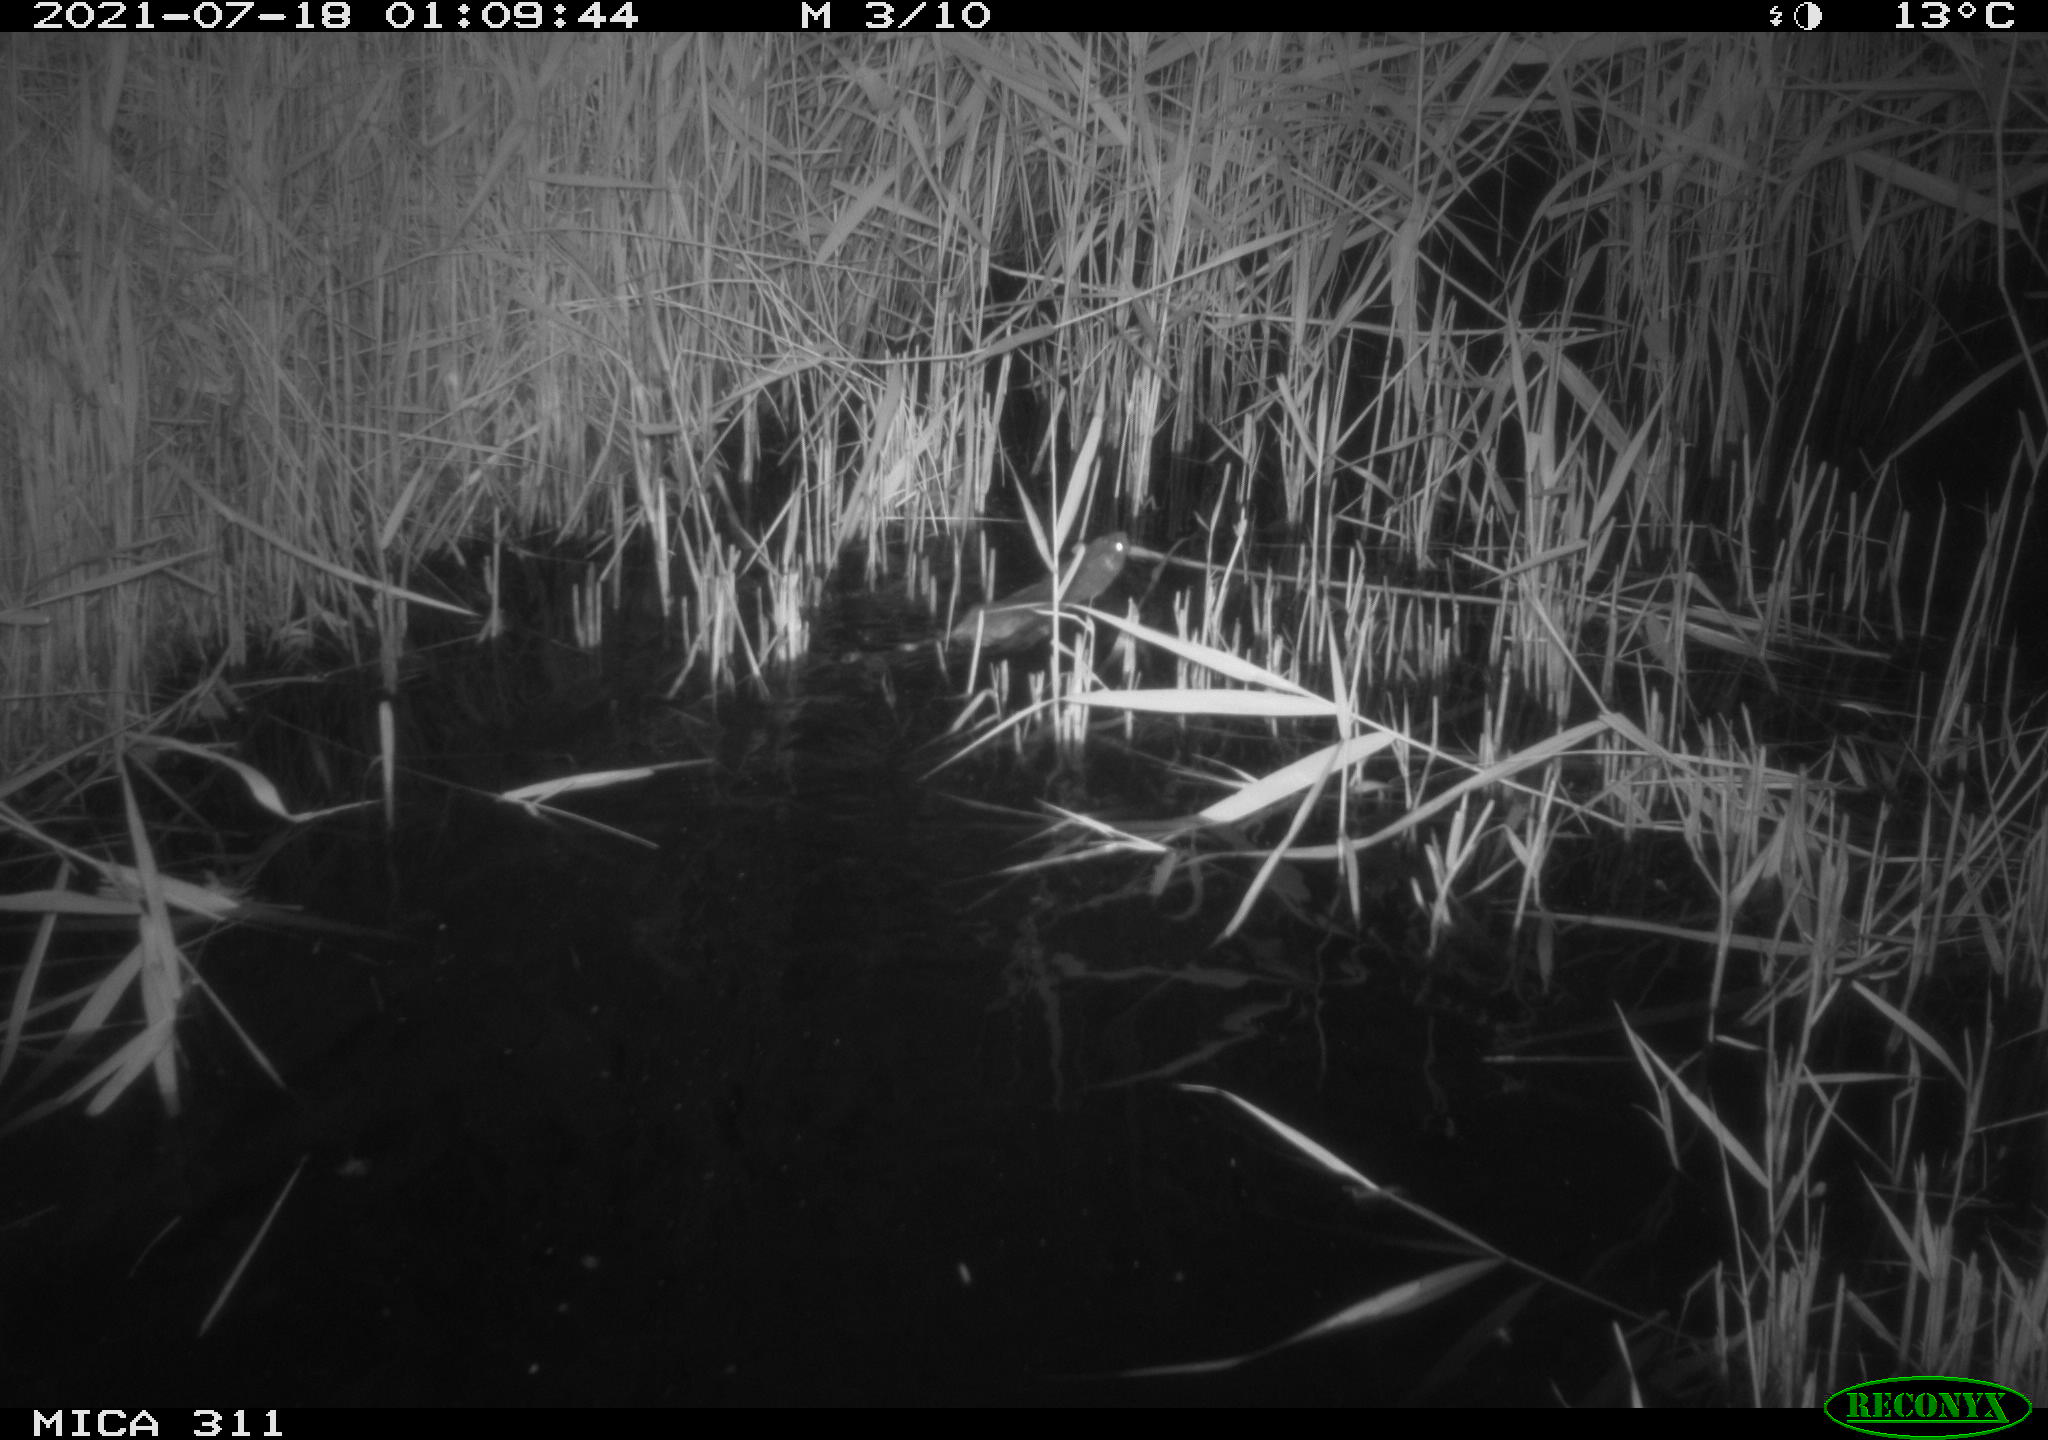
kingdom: Animalia
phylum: Chordata
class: Mammalia
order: Rodentia
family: Muridae
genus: Rattus
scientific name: Rattus norvegicus
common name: Brown rat
